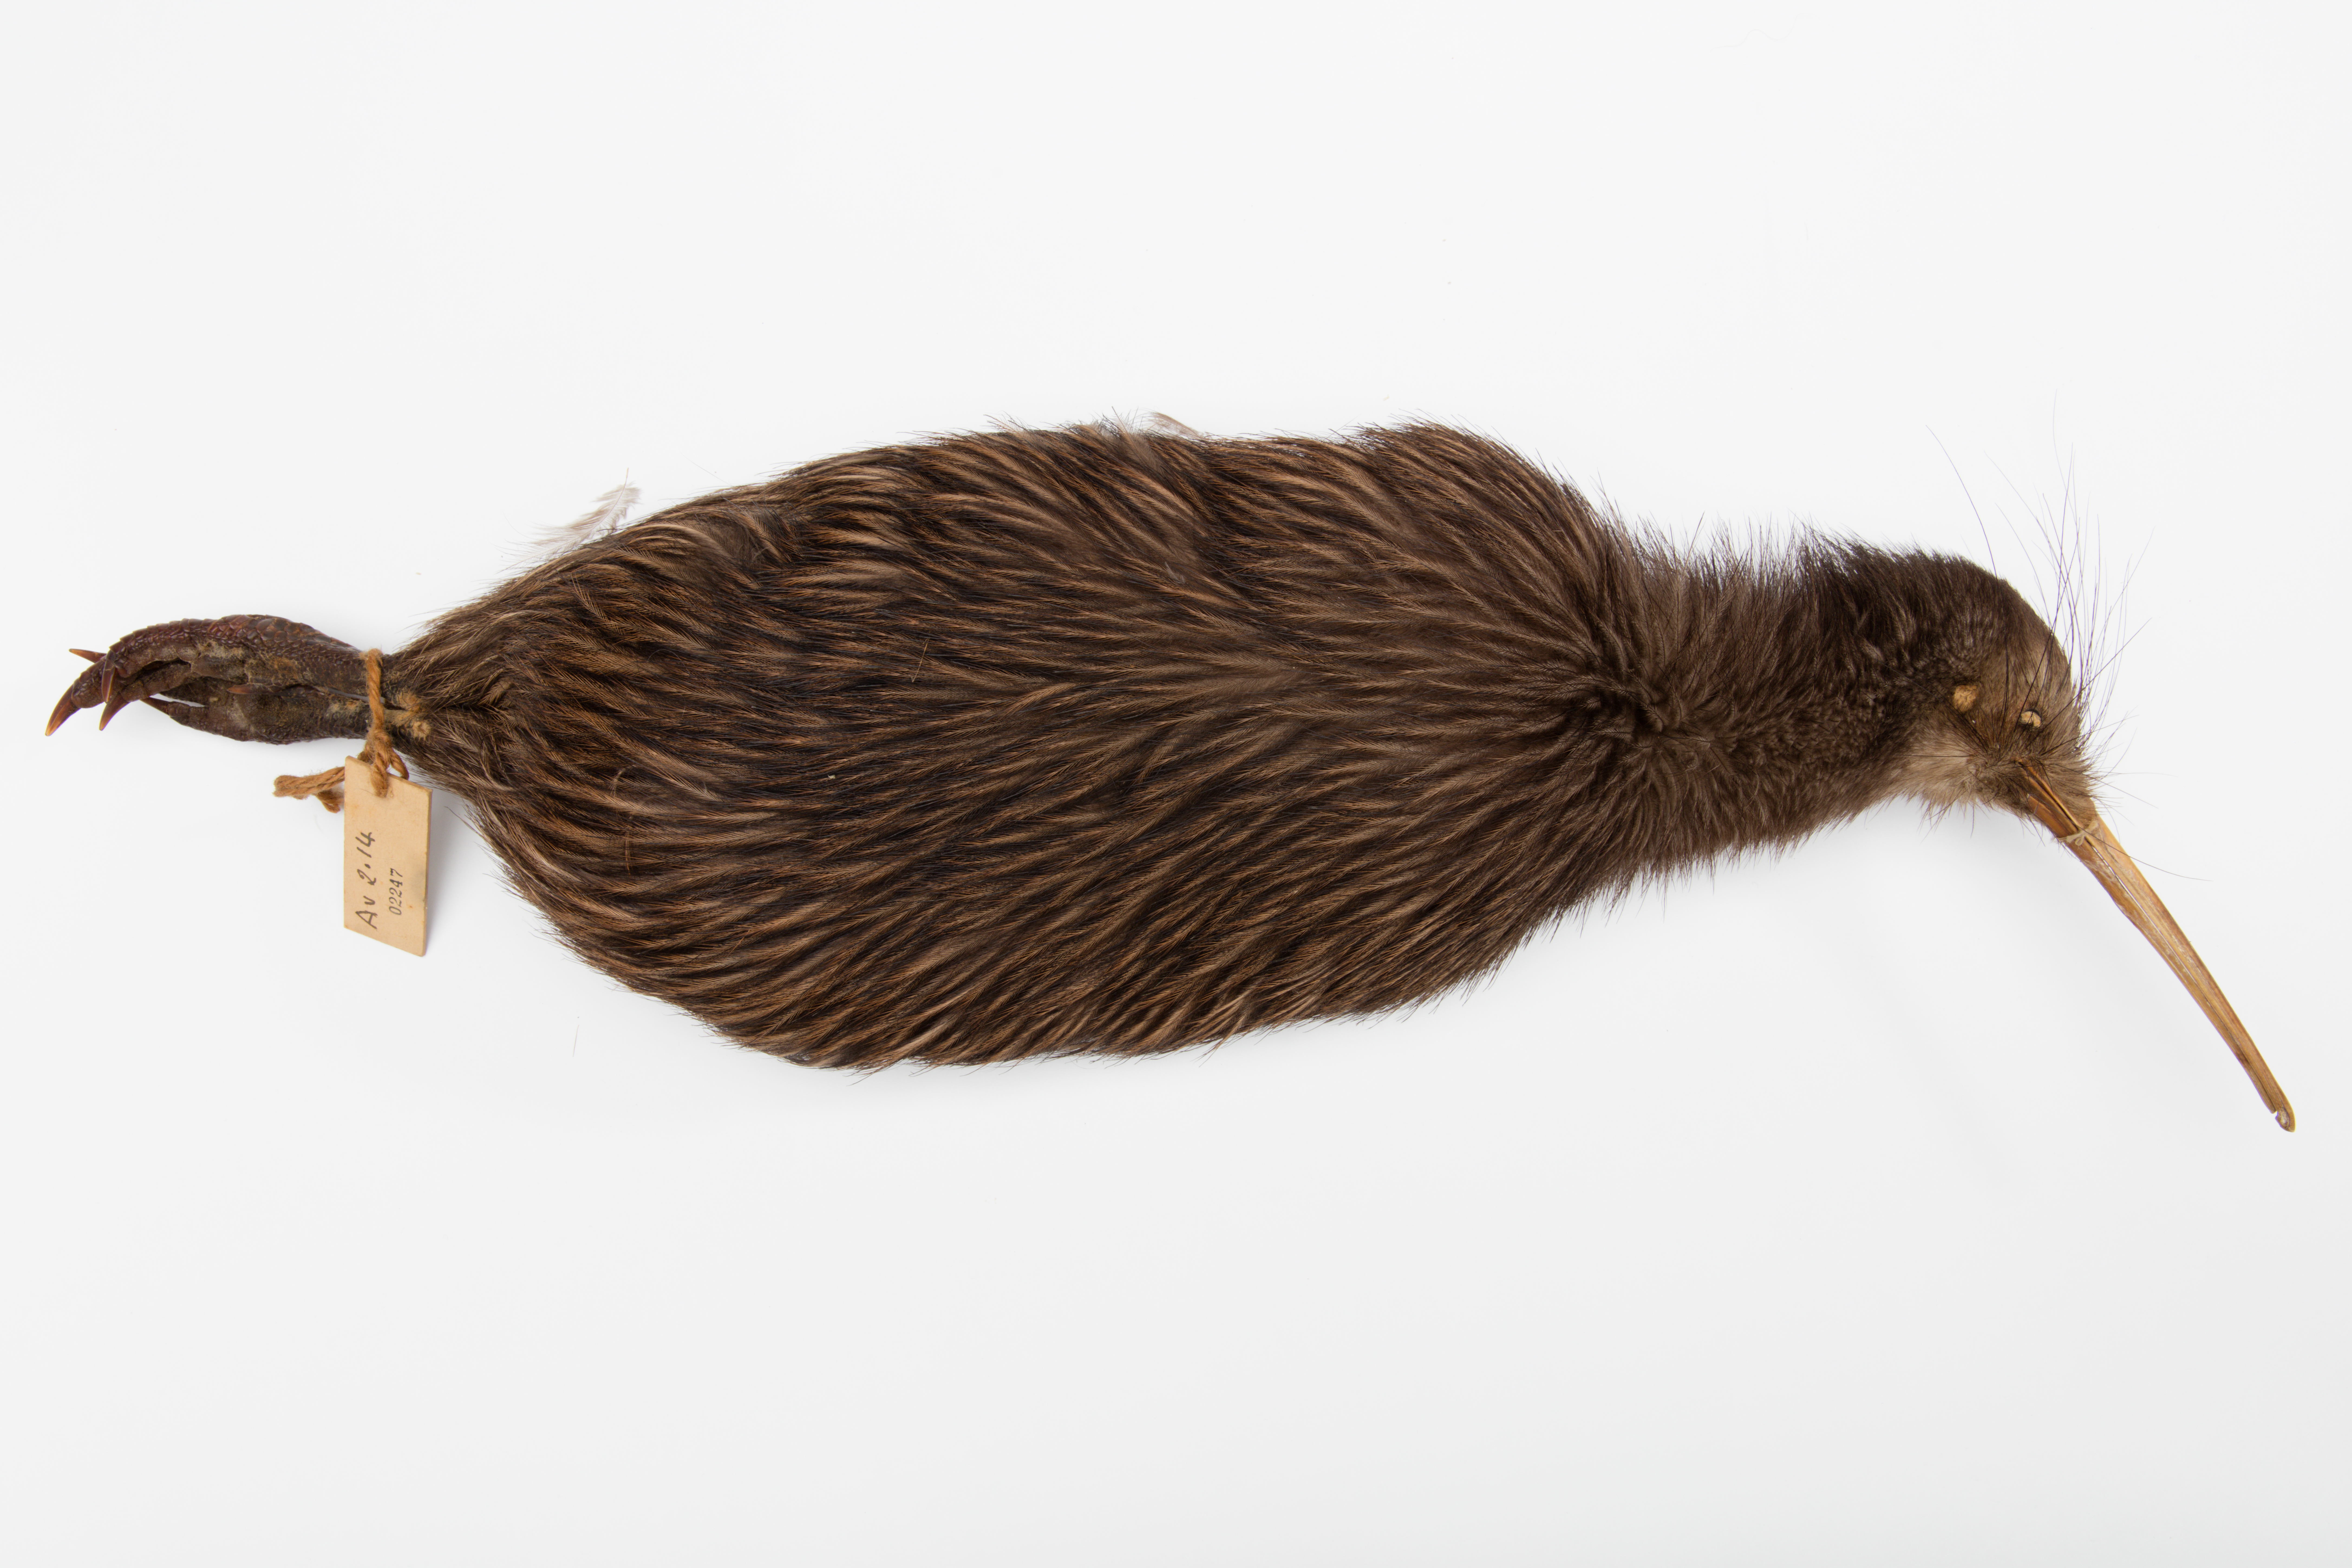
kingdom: Animalia
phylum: Chordata
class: Aves
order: Apterygiformes
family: Apterygidae
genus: Apteryx
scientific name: Apteryx mantelli
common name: North island brown kiwi
